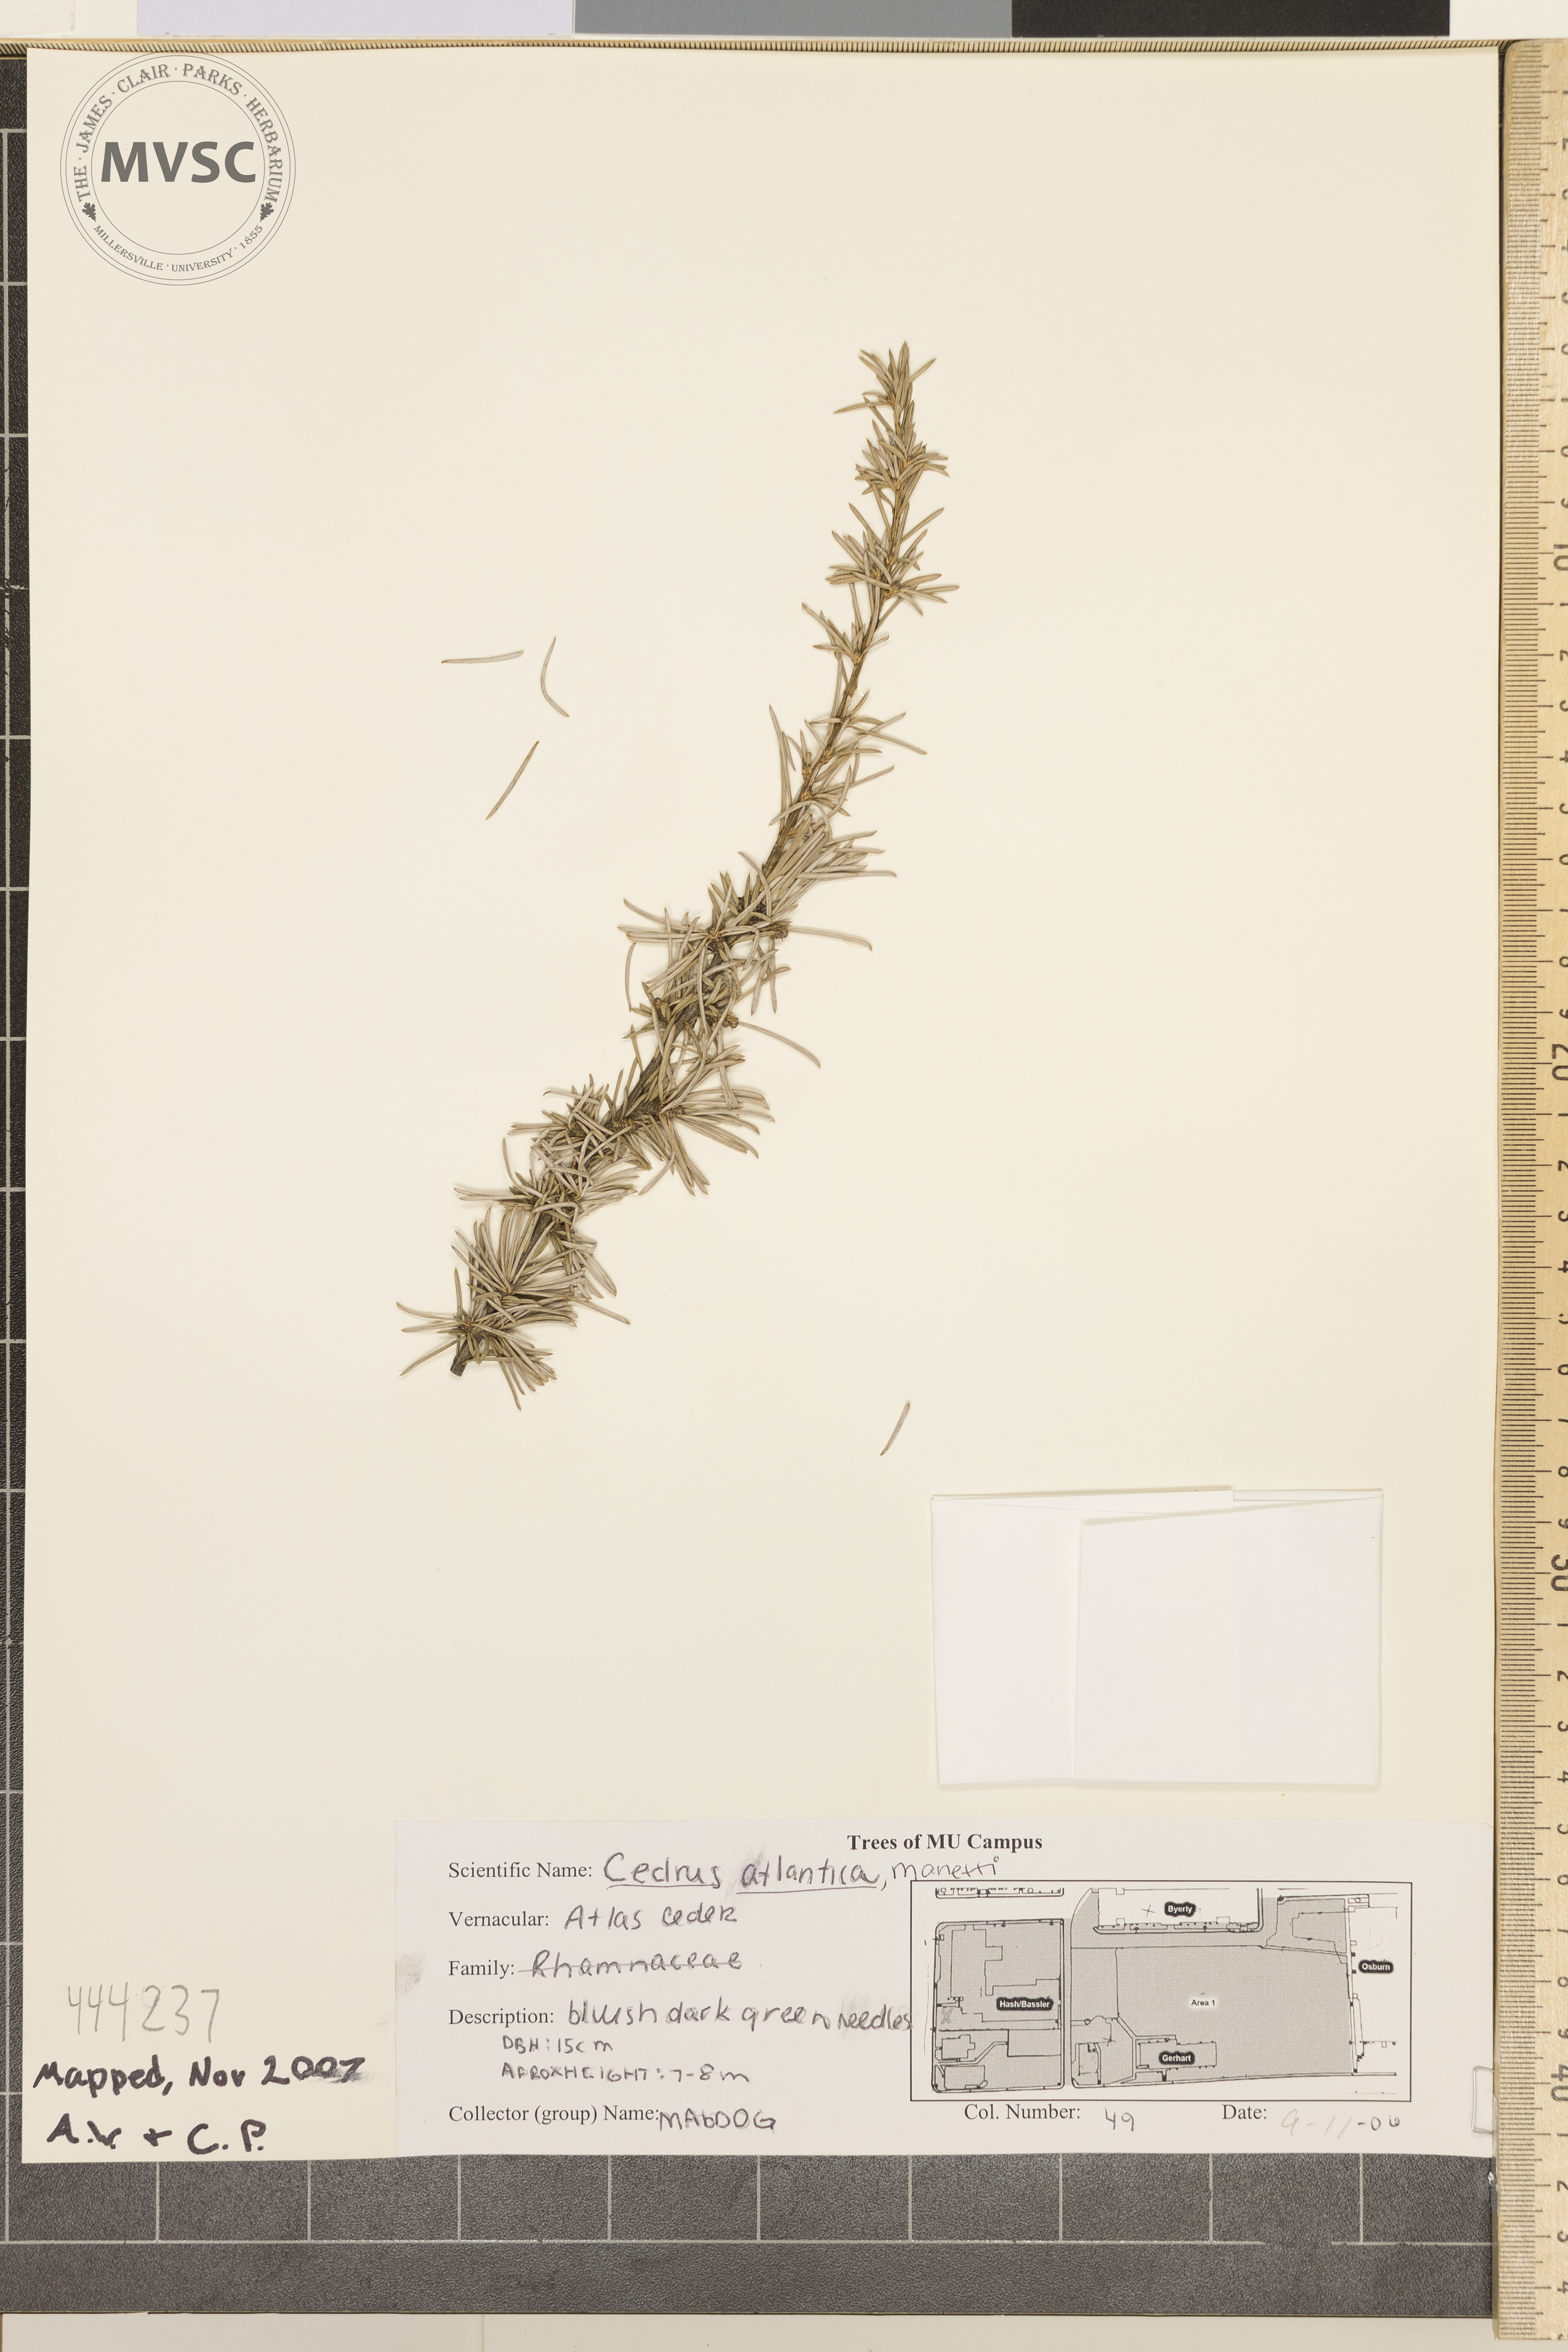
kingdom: Plantae
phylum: Tracheophyta
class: Pinopsida
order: Pinales
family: Pinaceae
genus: Cedrus
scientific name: Cedrus atlantica
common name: Atlas cedar
